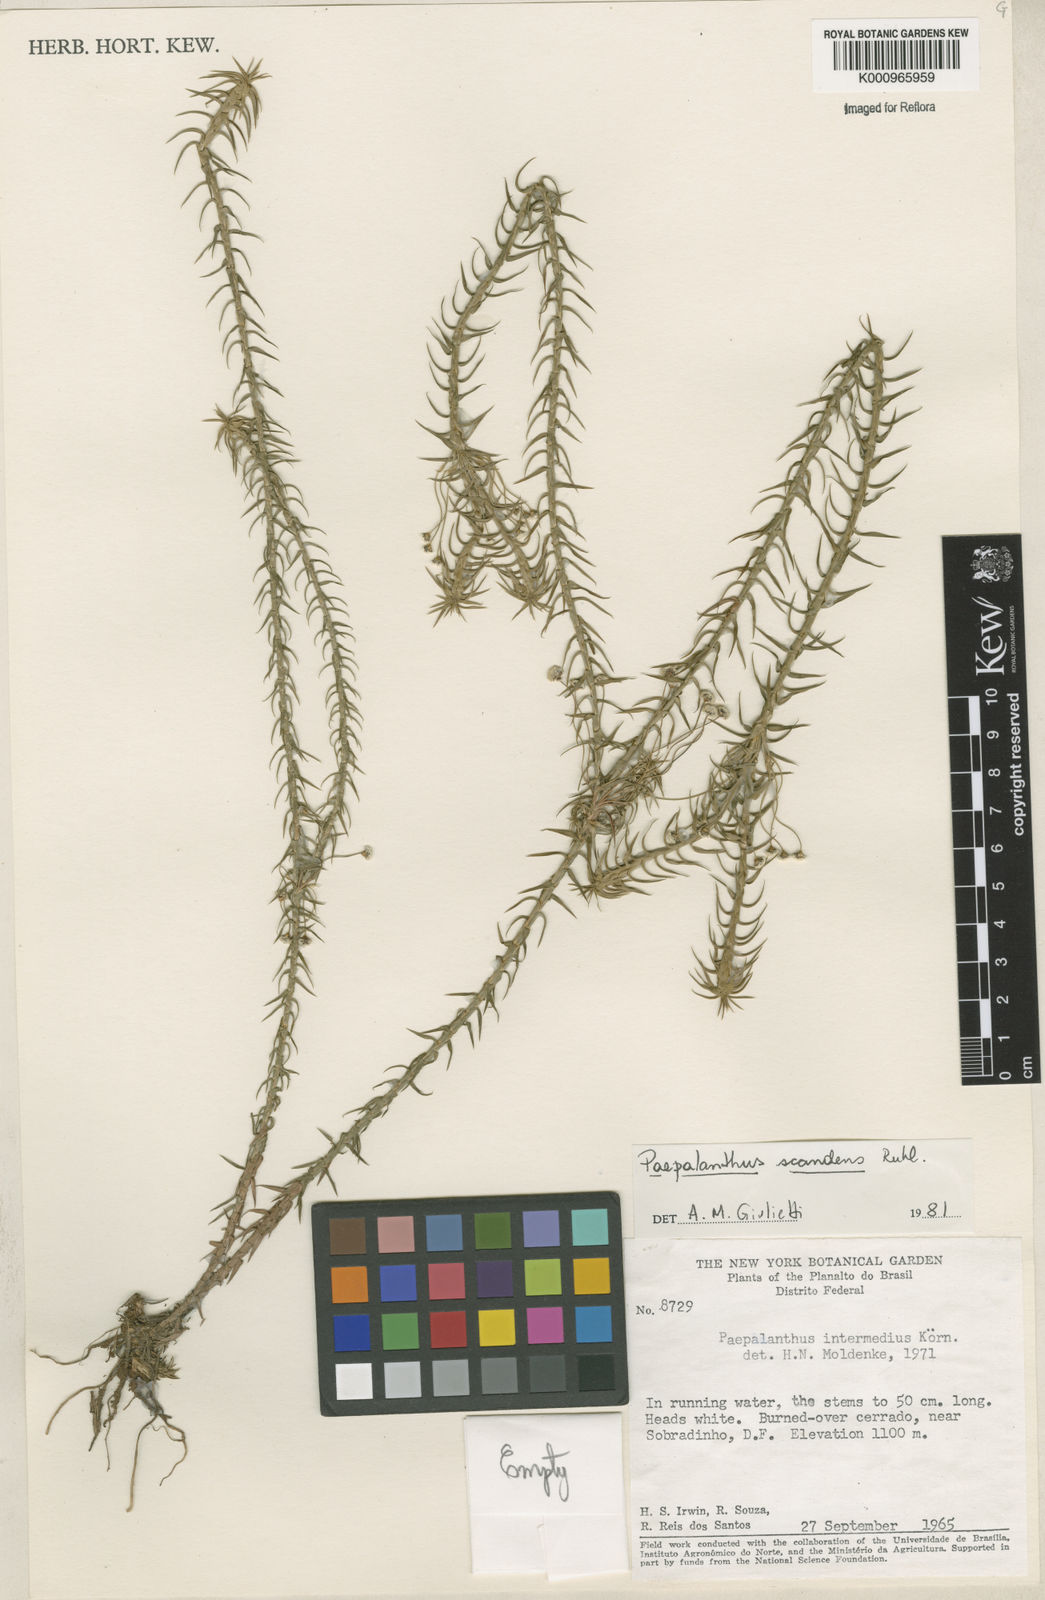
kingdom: Plantae
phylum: Tracheophyta
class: Liliopsida
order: Poales
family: Eriocaulaceae
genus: Paepalanthus
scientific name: Paepalanthus scandens
